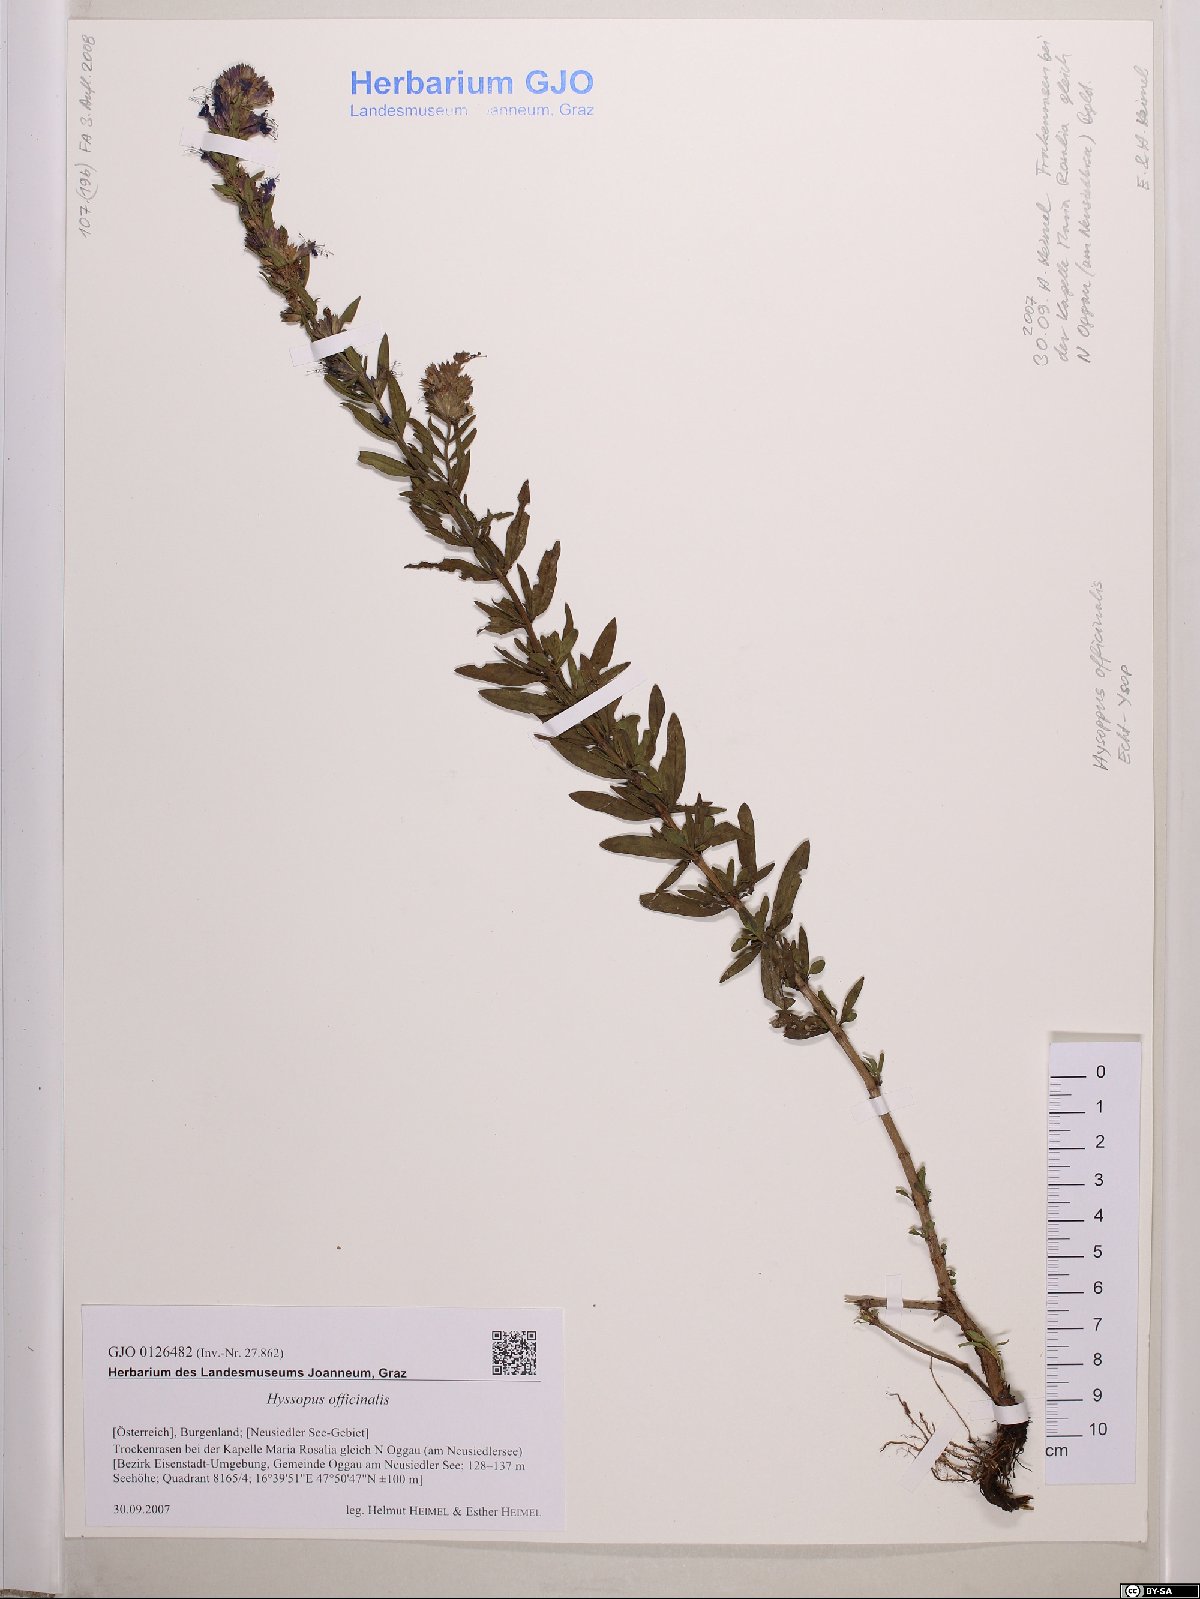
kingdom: Plantae
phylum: Tracheophyta
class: Magnoliopsida
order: Lamiales
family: Lamiaceae
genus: Hyssopus
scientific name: Hyssopus officinalis
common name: Hyssop
